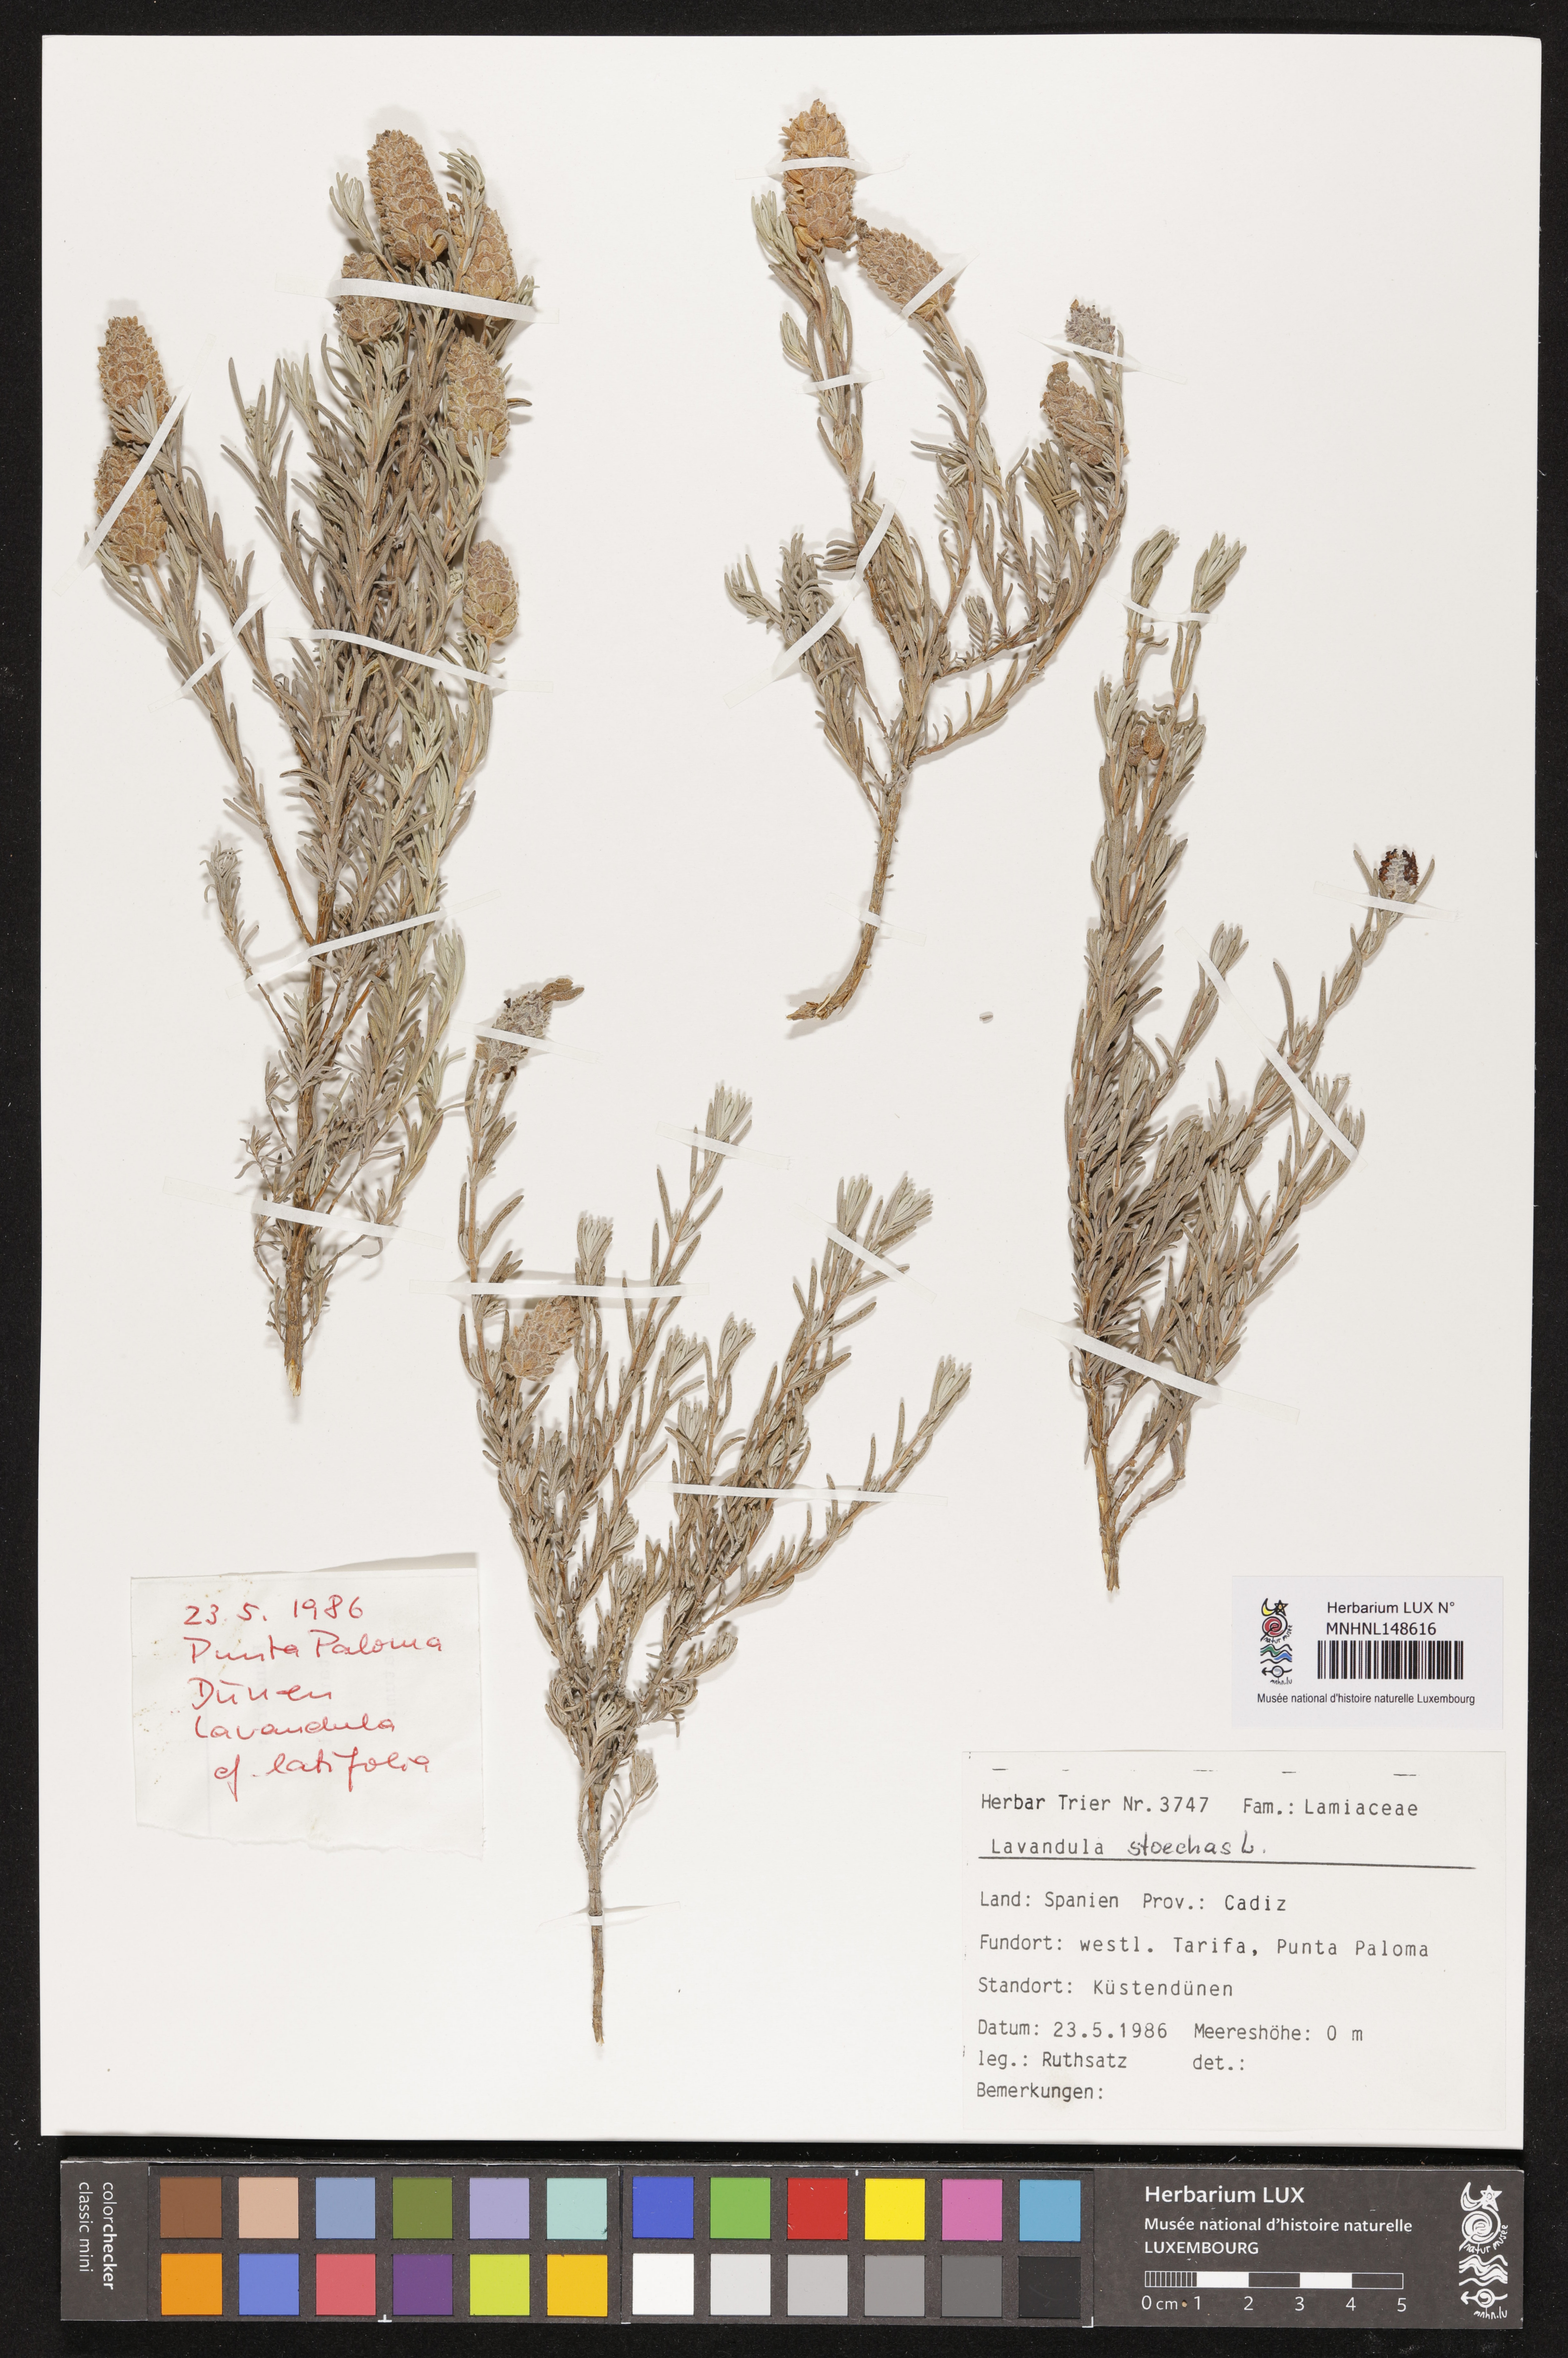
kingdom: Plantae
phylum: Tracheophyta
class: Magnoliopsida
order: Lamiales
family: Lamiaceae
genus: Lavandula
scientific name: Lavandula stoechas
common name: French lavender
